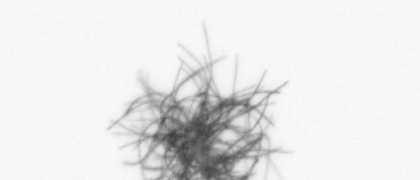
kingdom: Bacteria
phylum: Cyanobacteria
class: Cyanobacteriia
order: Cyanobacteriales
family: Microcoleaceae
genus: Trichodesmium
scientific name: Trichodesmium
